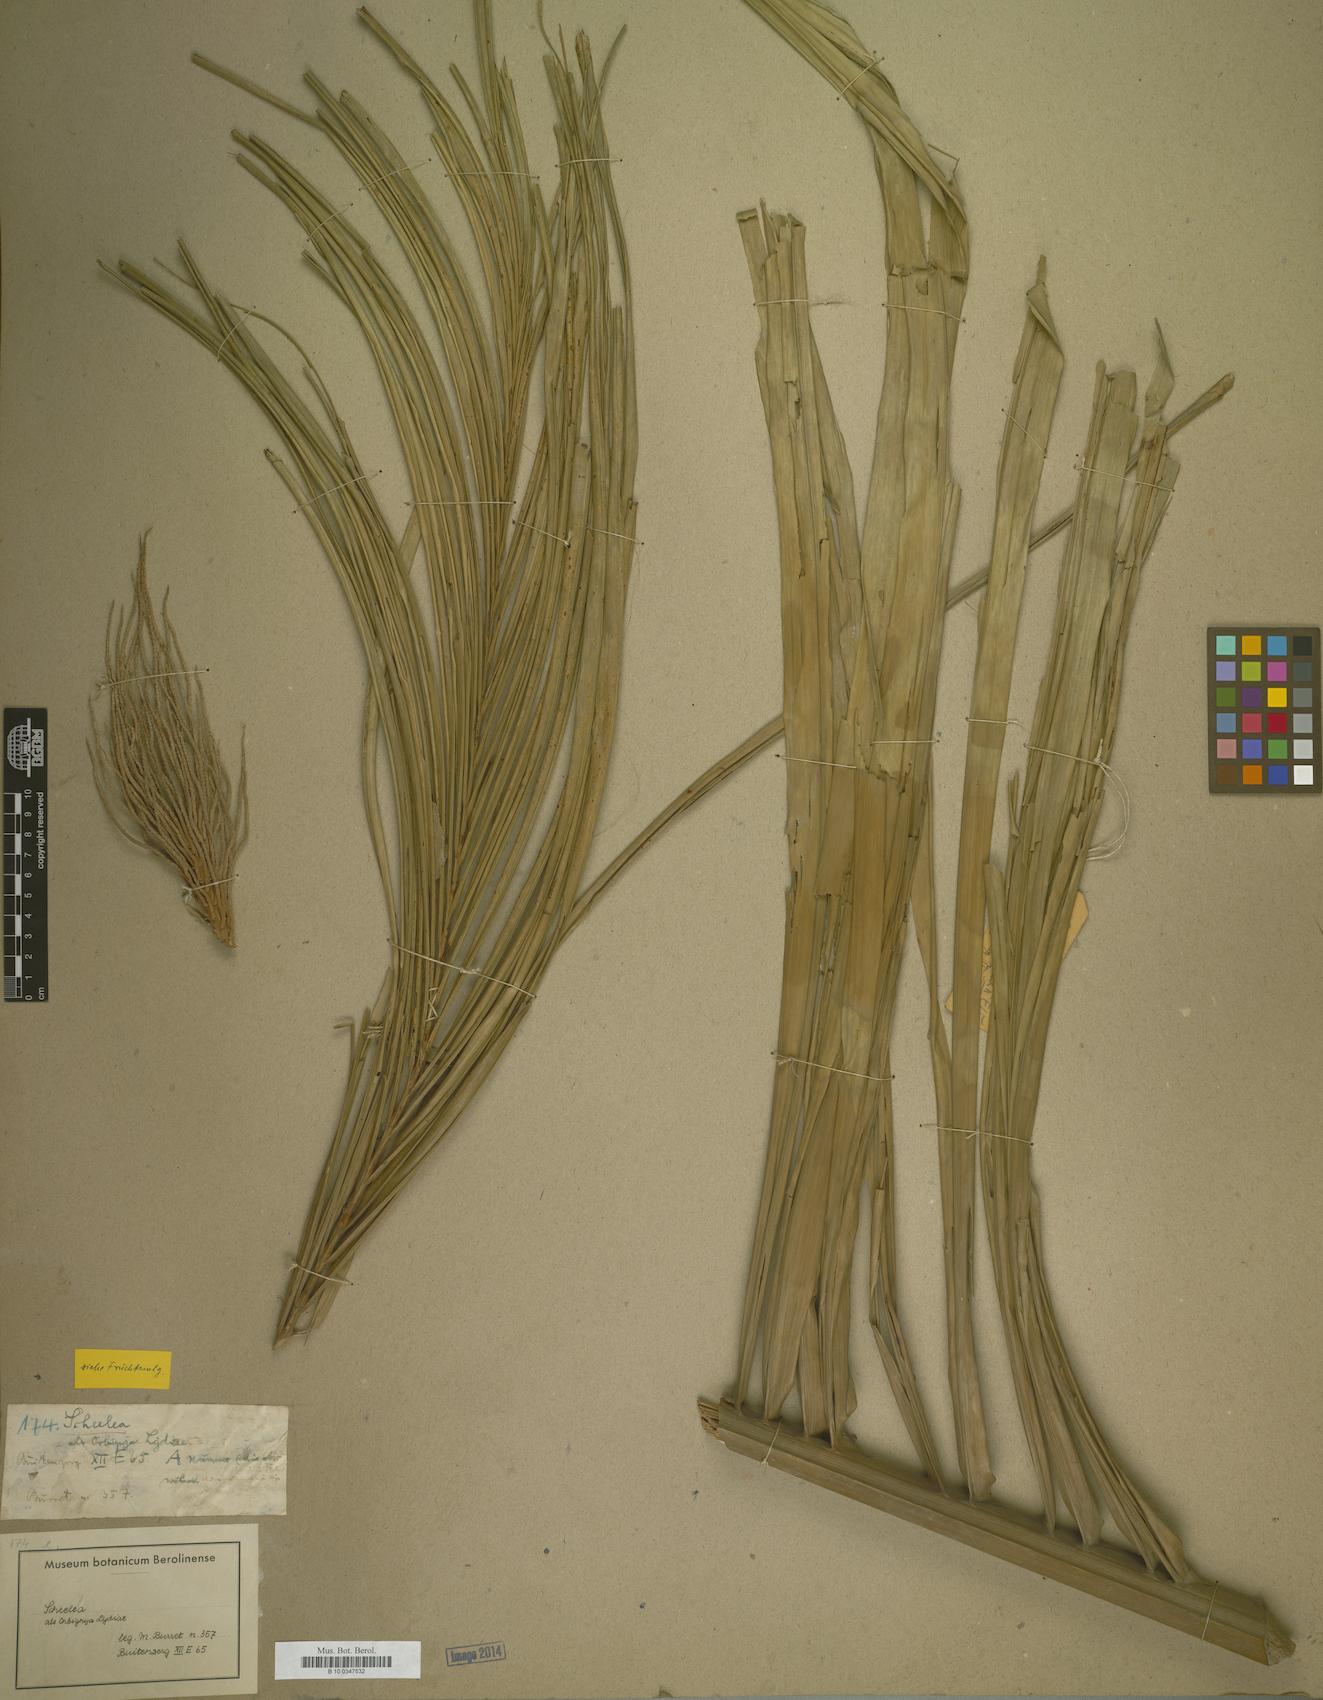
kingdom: Plantae
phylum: Tracheophyta
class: Magnoliopsida
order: Sapindales
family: Sapindaceae
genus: Orbignya
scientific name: Orbignya
